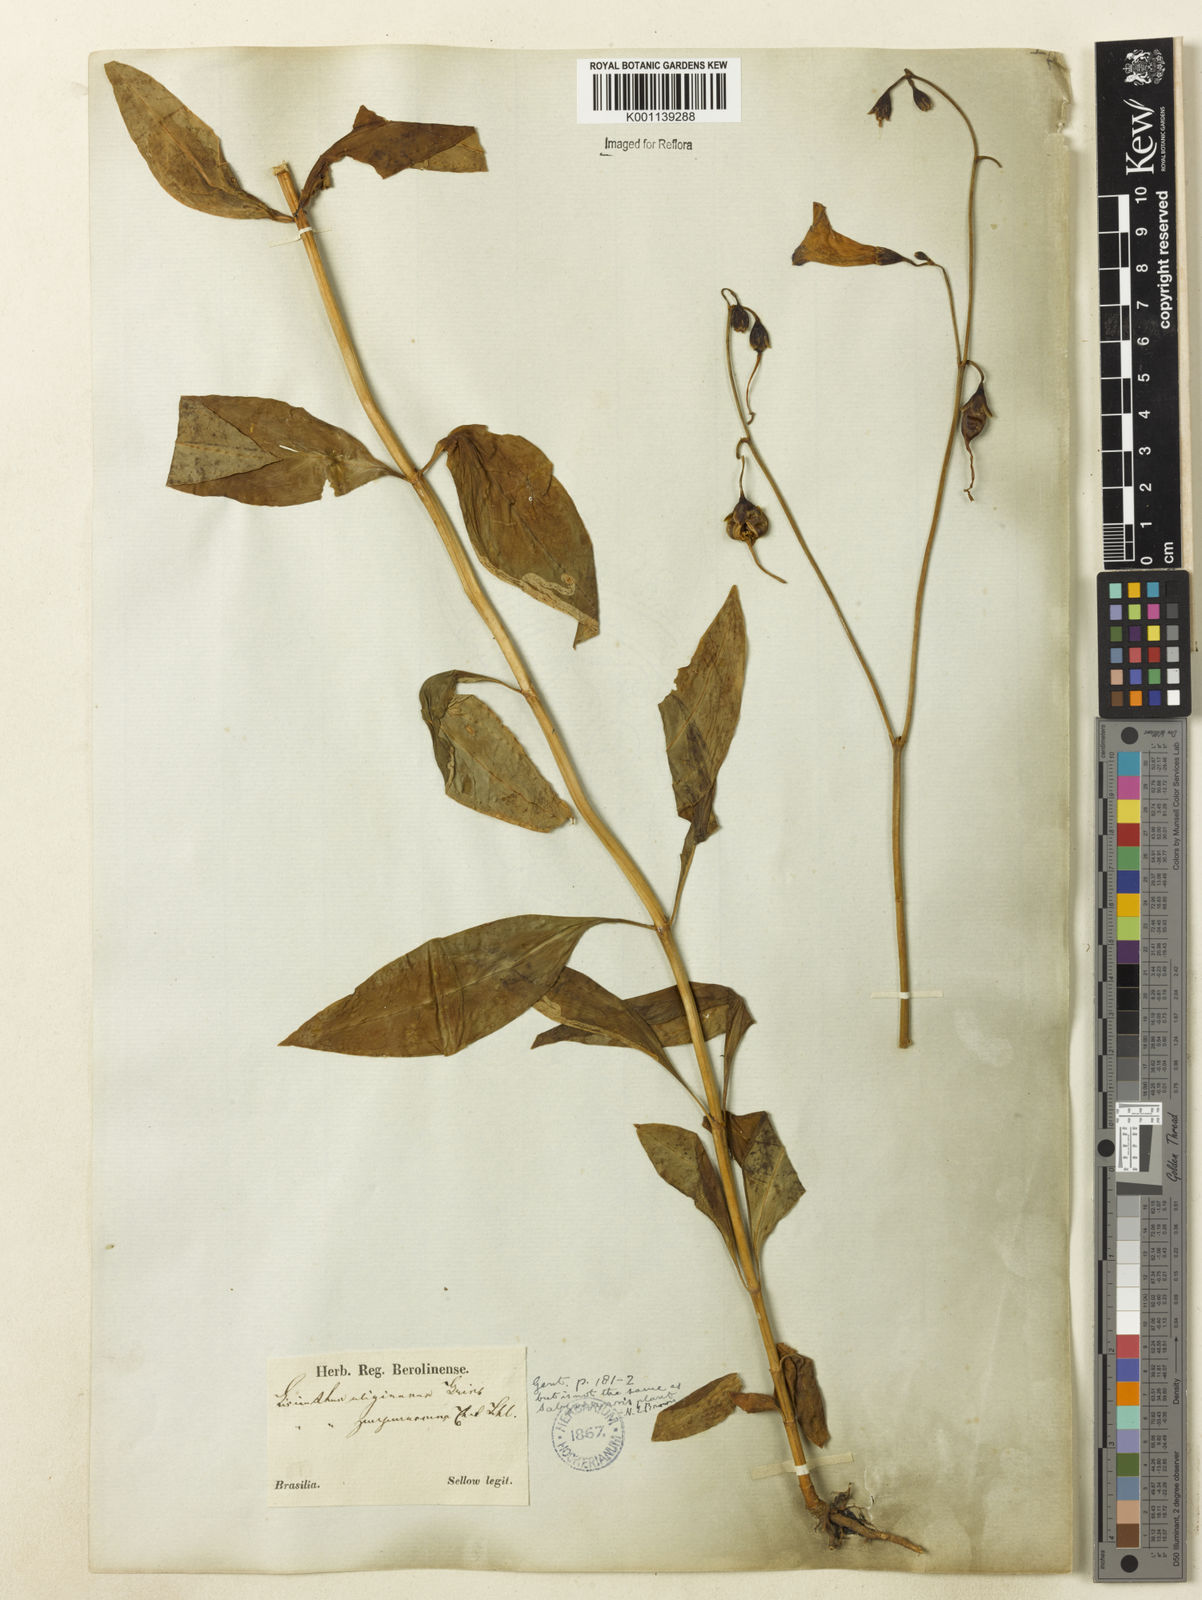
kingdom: Plantae
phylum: Tracheophyta
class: Magnoliopsida
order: Gentianales
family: Gentianaceae
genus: Chelonanthus
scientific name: Chelonanthus purpurascens
